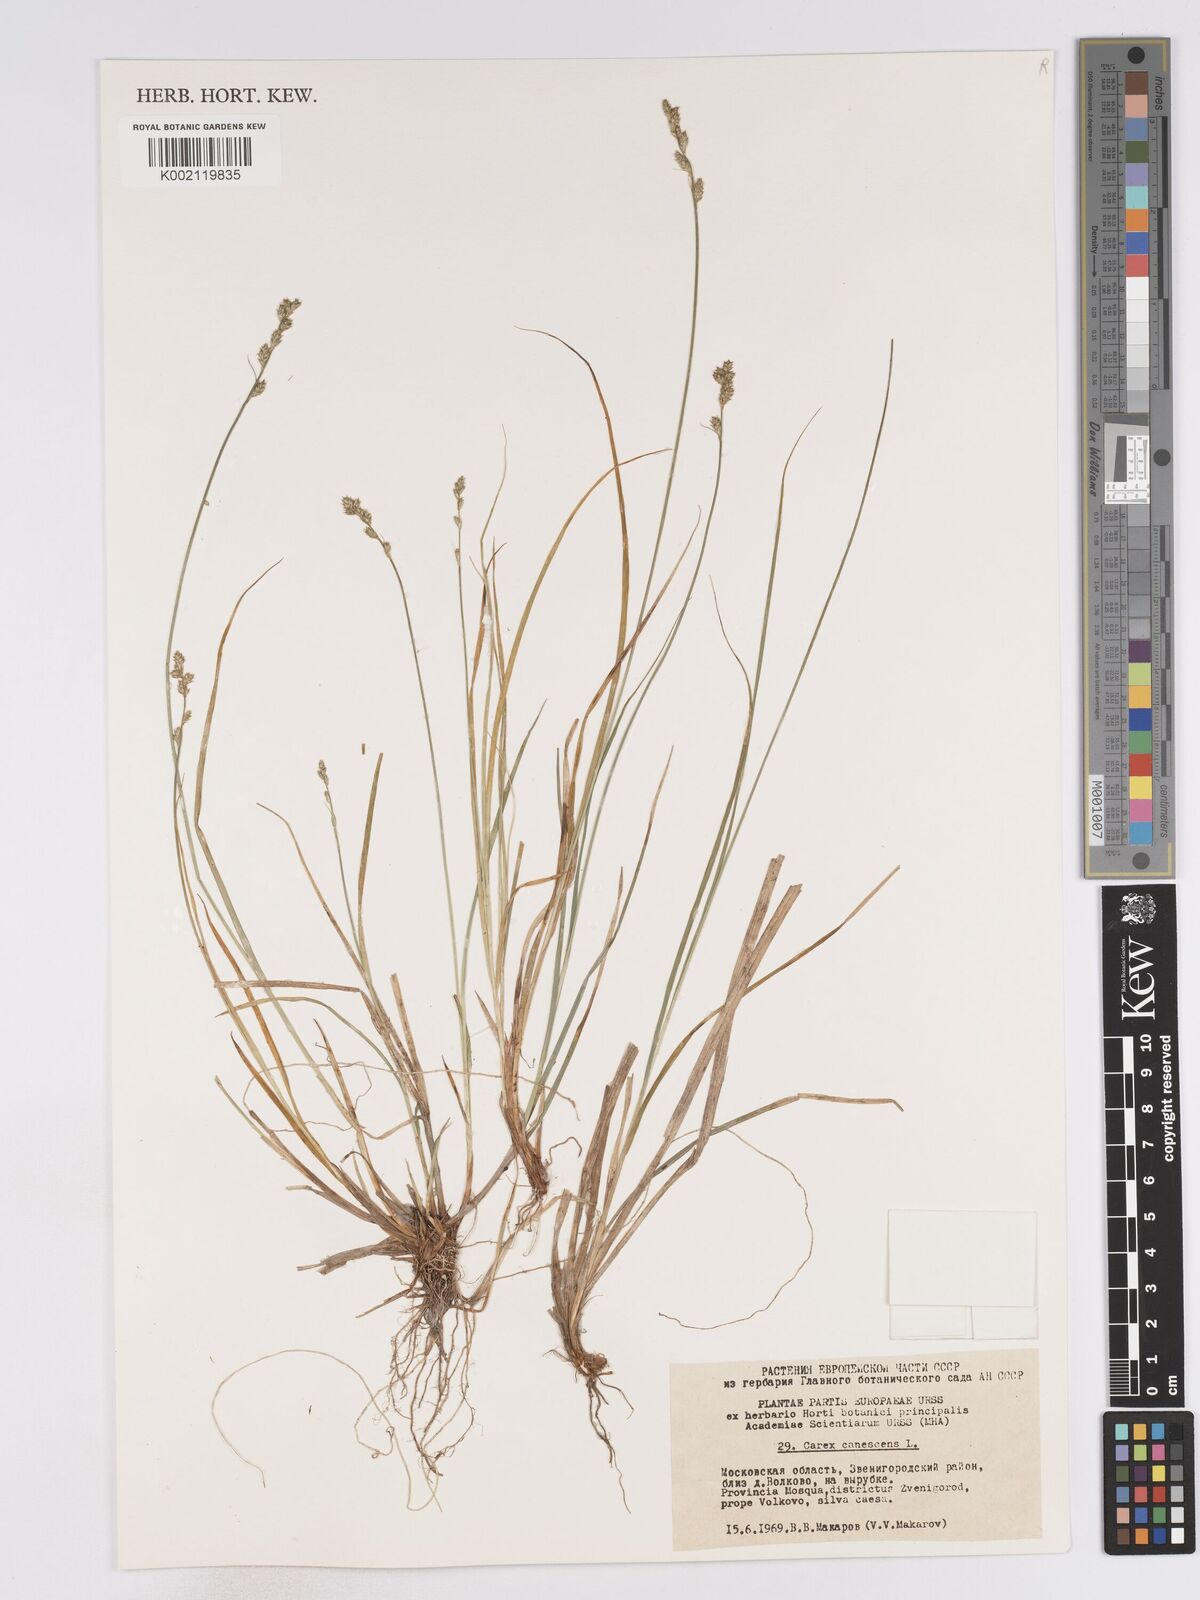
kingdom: Plantae
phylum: Tracheophyta
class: Liliopsida
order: Poales
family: Cyperaceae
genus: Carex
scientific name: Carex curta
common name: White sedge
